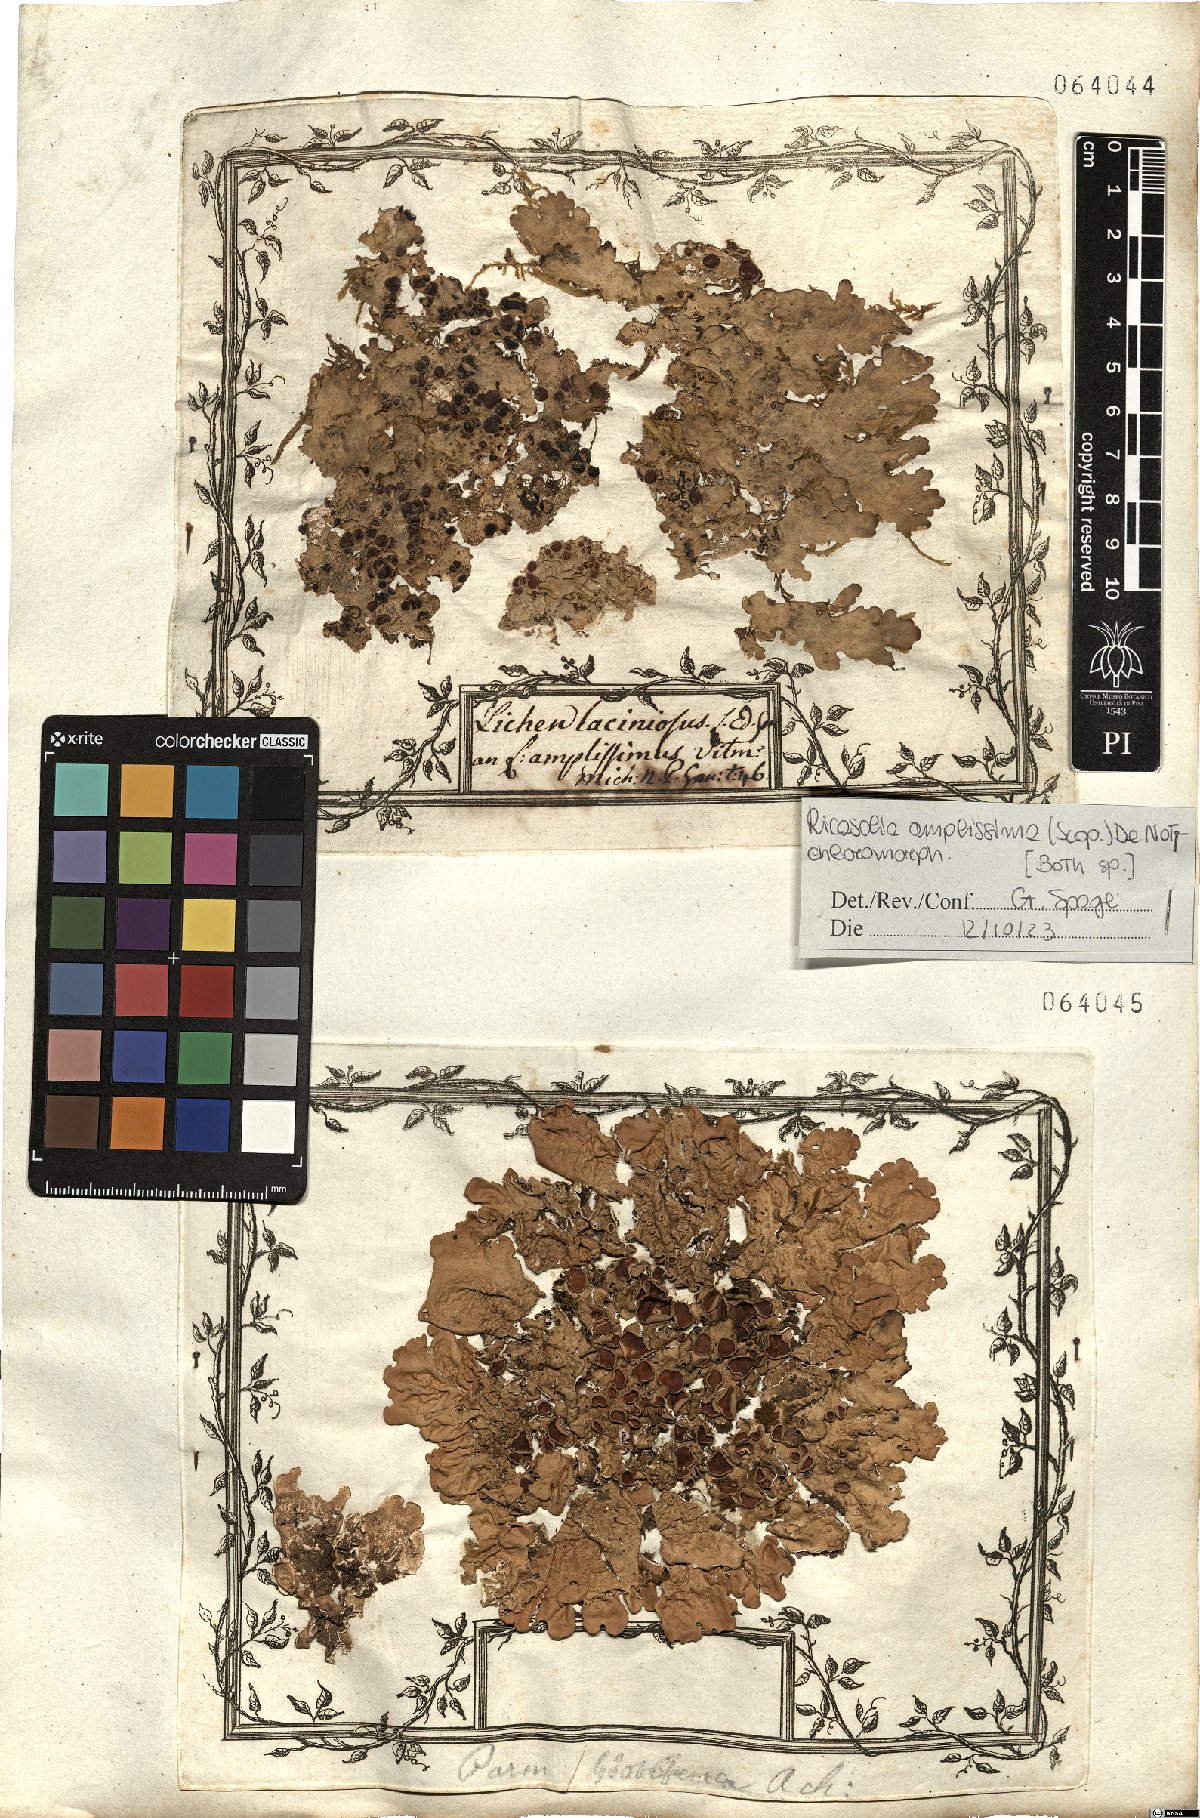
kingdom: Fungi
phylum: Ascomycota
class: Lecanoromycetes
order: Peltigerales
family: Lobariaceae
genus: Ricasolia
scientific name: Ricasolia amplissima
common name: Giant candlewax lichen
